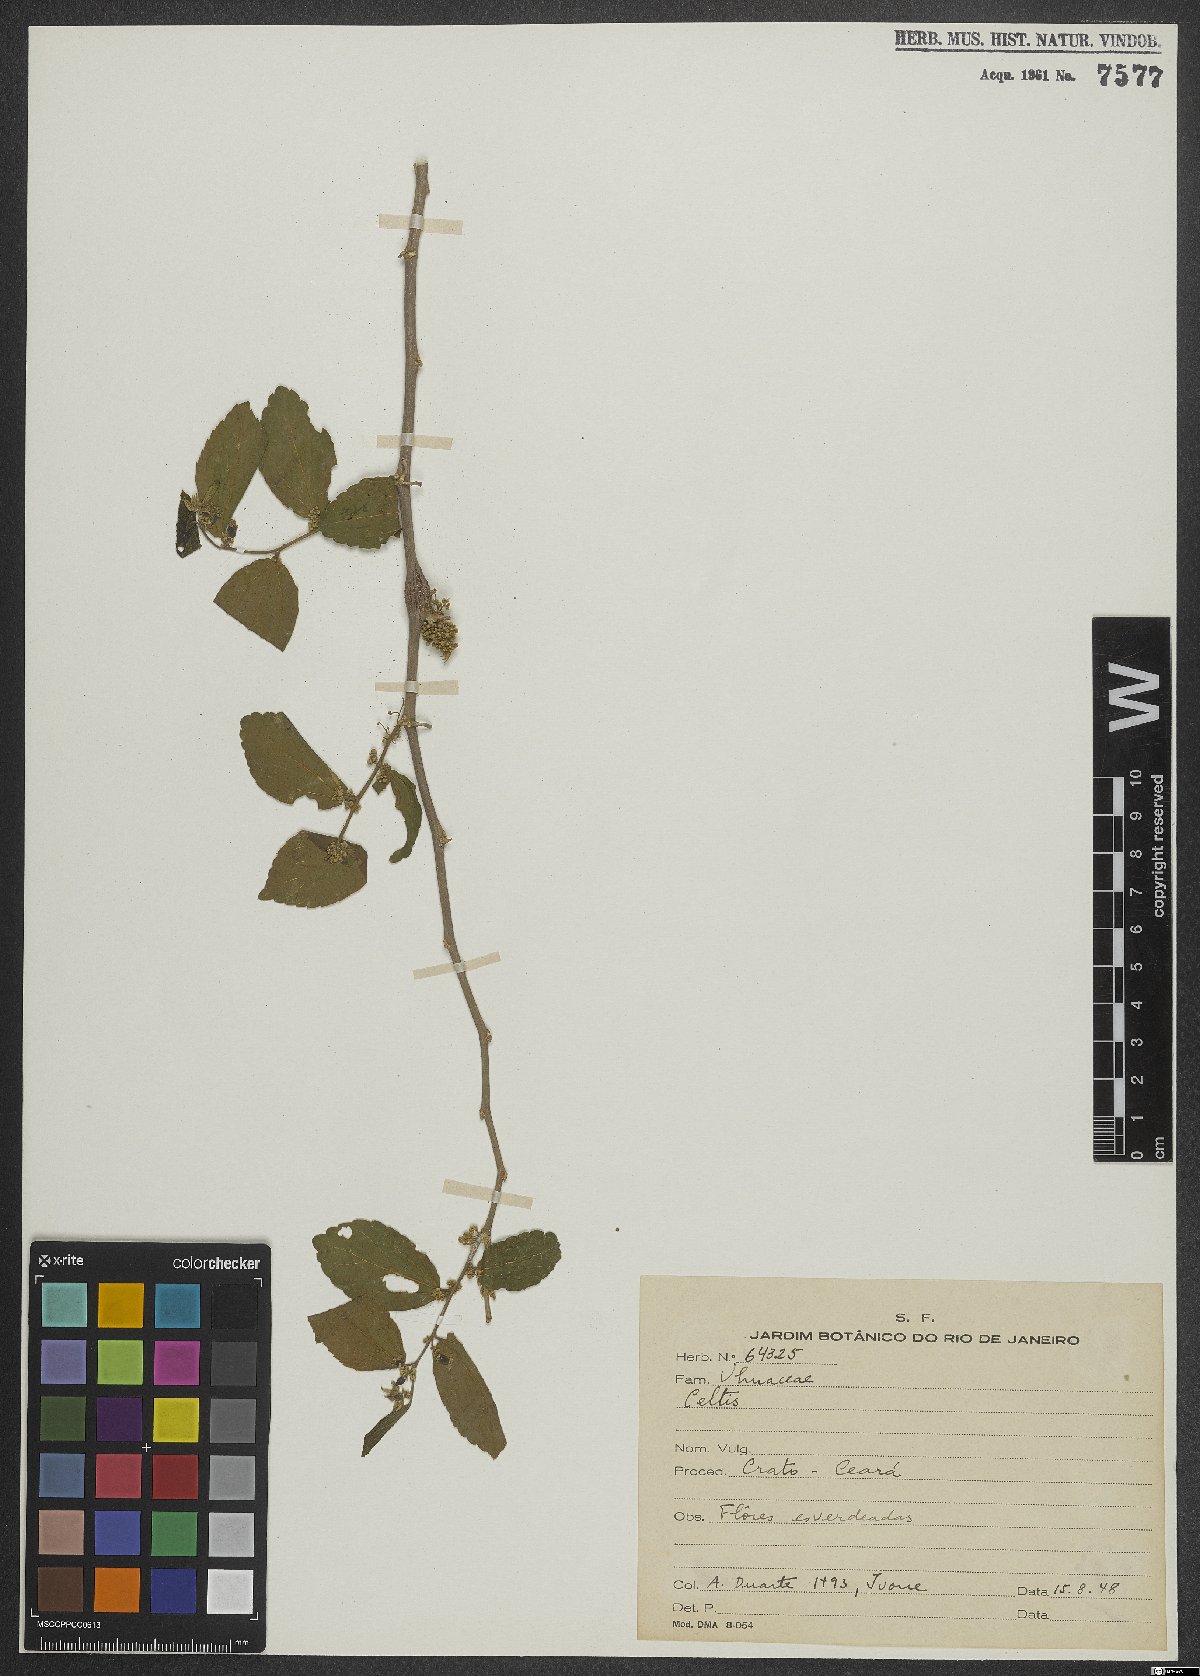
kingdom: Plantae
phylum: Tracheophyta
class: Magnoliopsida
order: Rosales
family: Cannabaceae
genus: Celtis
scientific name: Celtis
